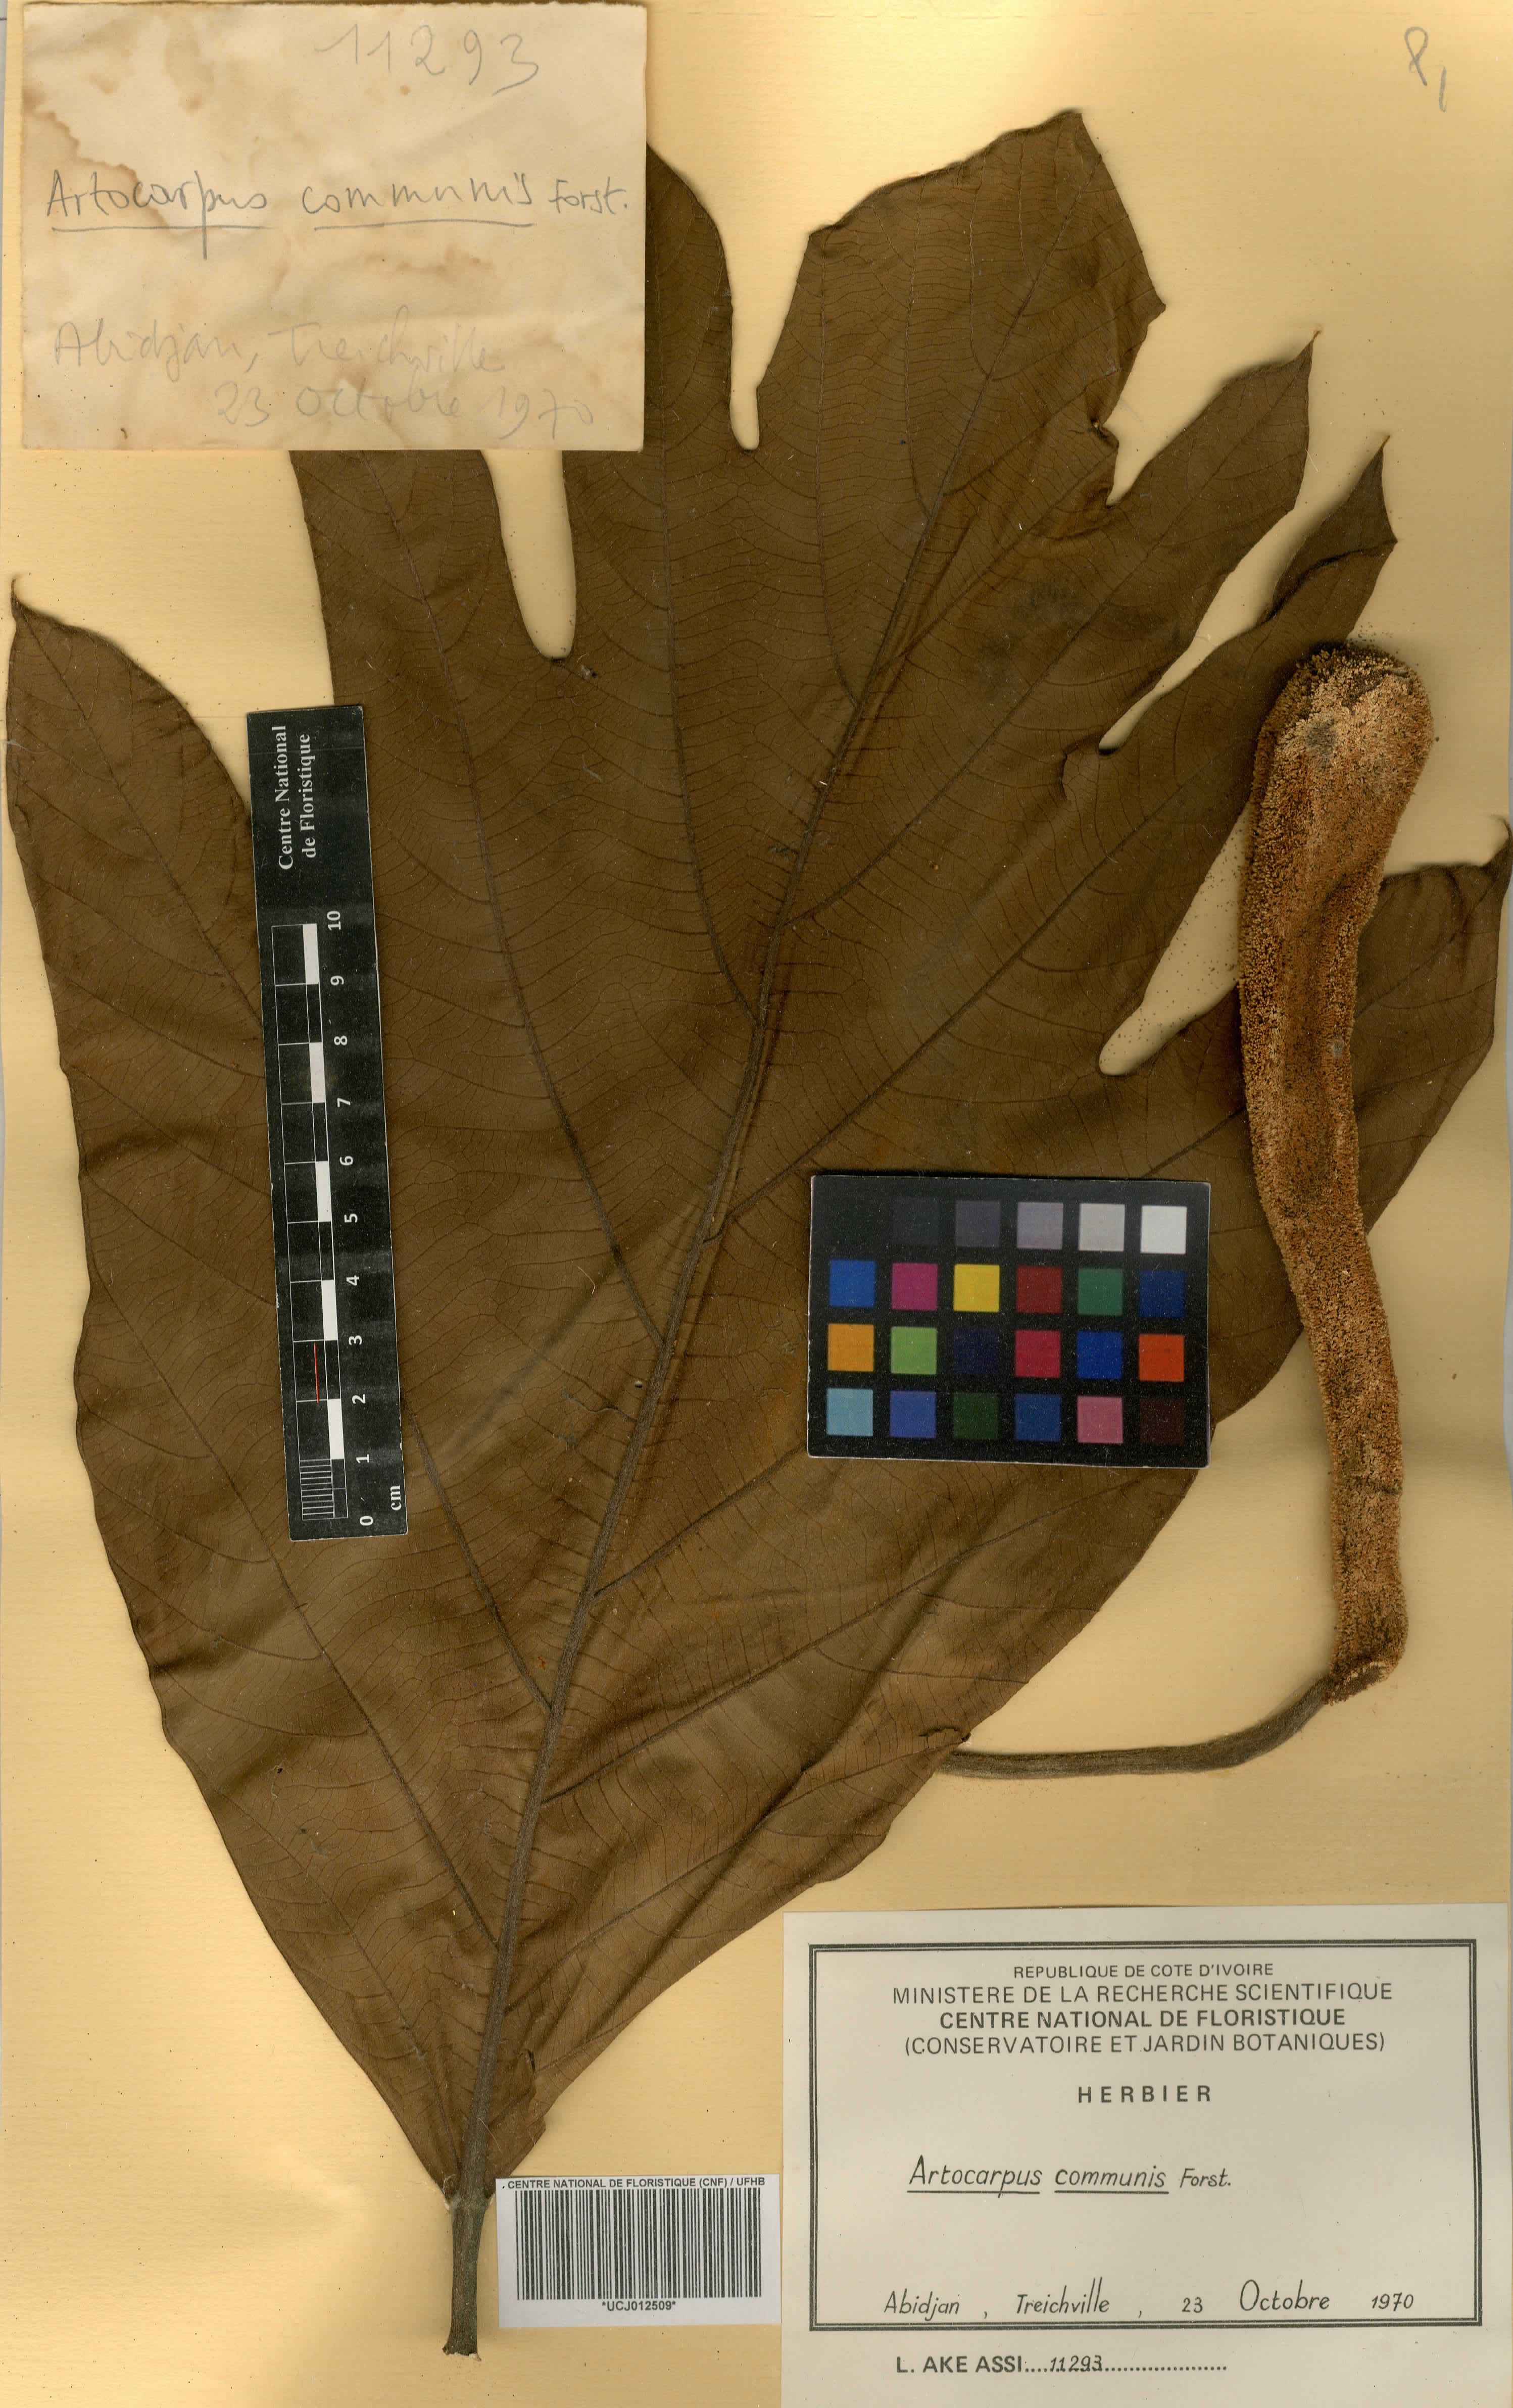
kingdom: Plantae
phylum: Tracheophyta
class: Magnoliopsida
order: Rosales
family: Moraceae
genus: Artocarpus
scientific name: Artocarpus altilis
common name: Breadfruit
